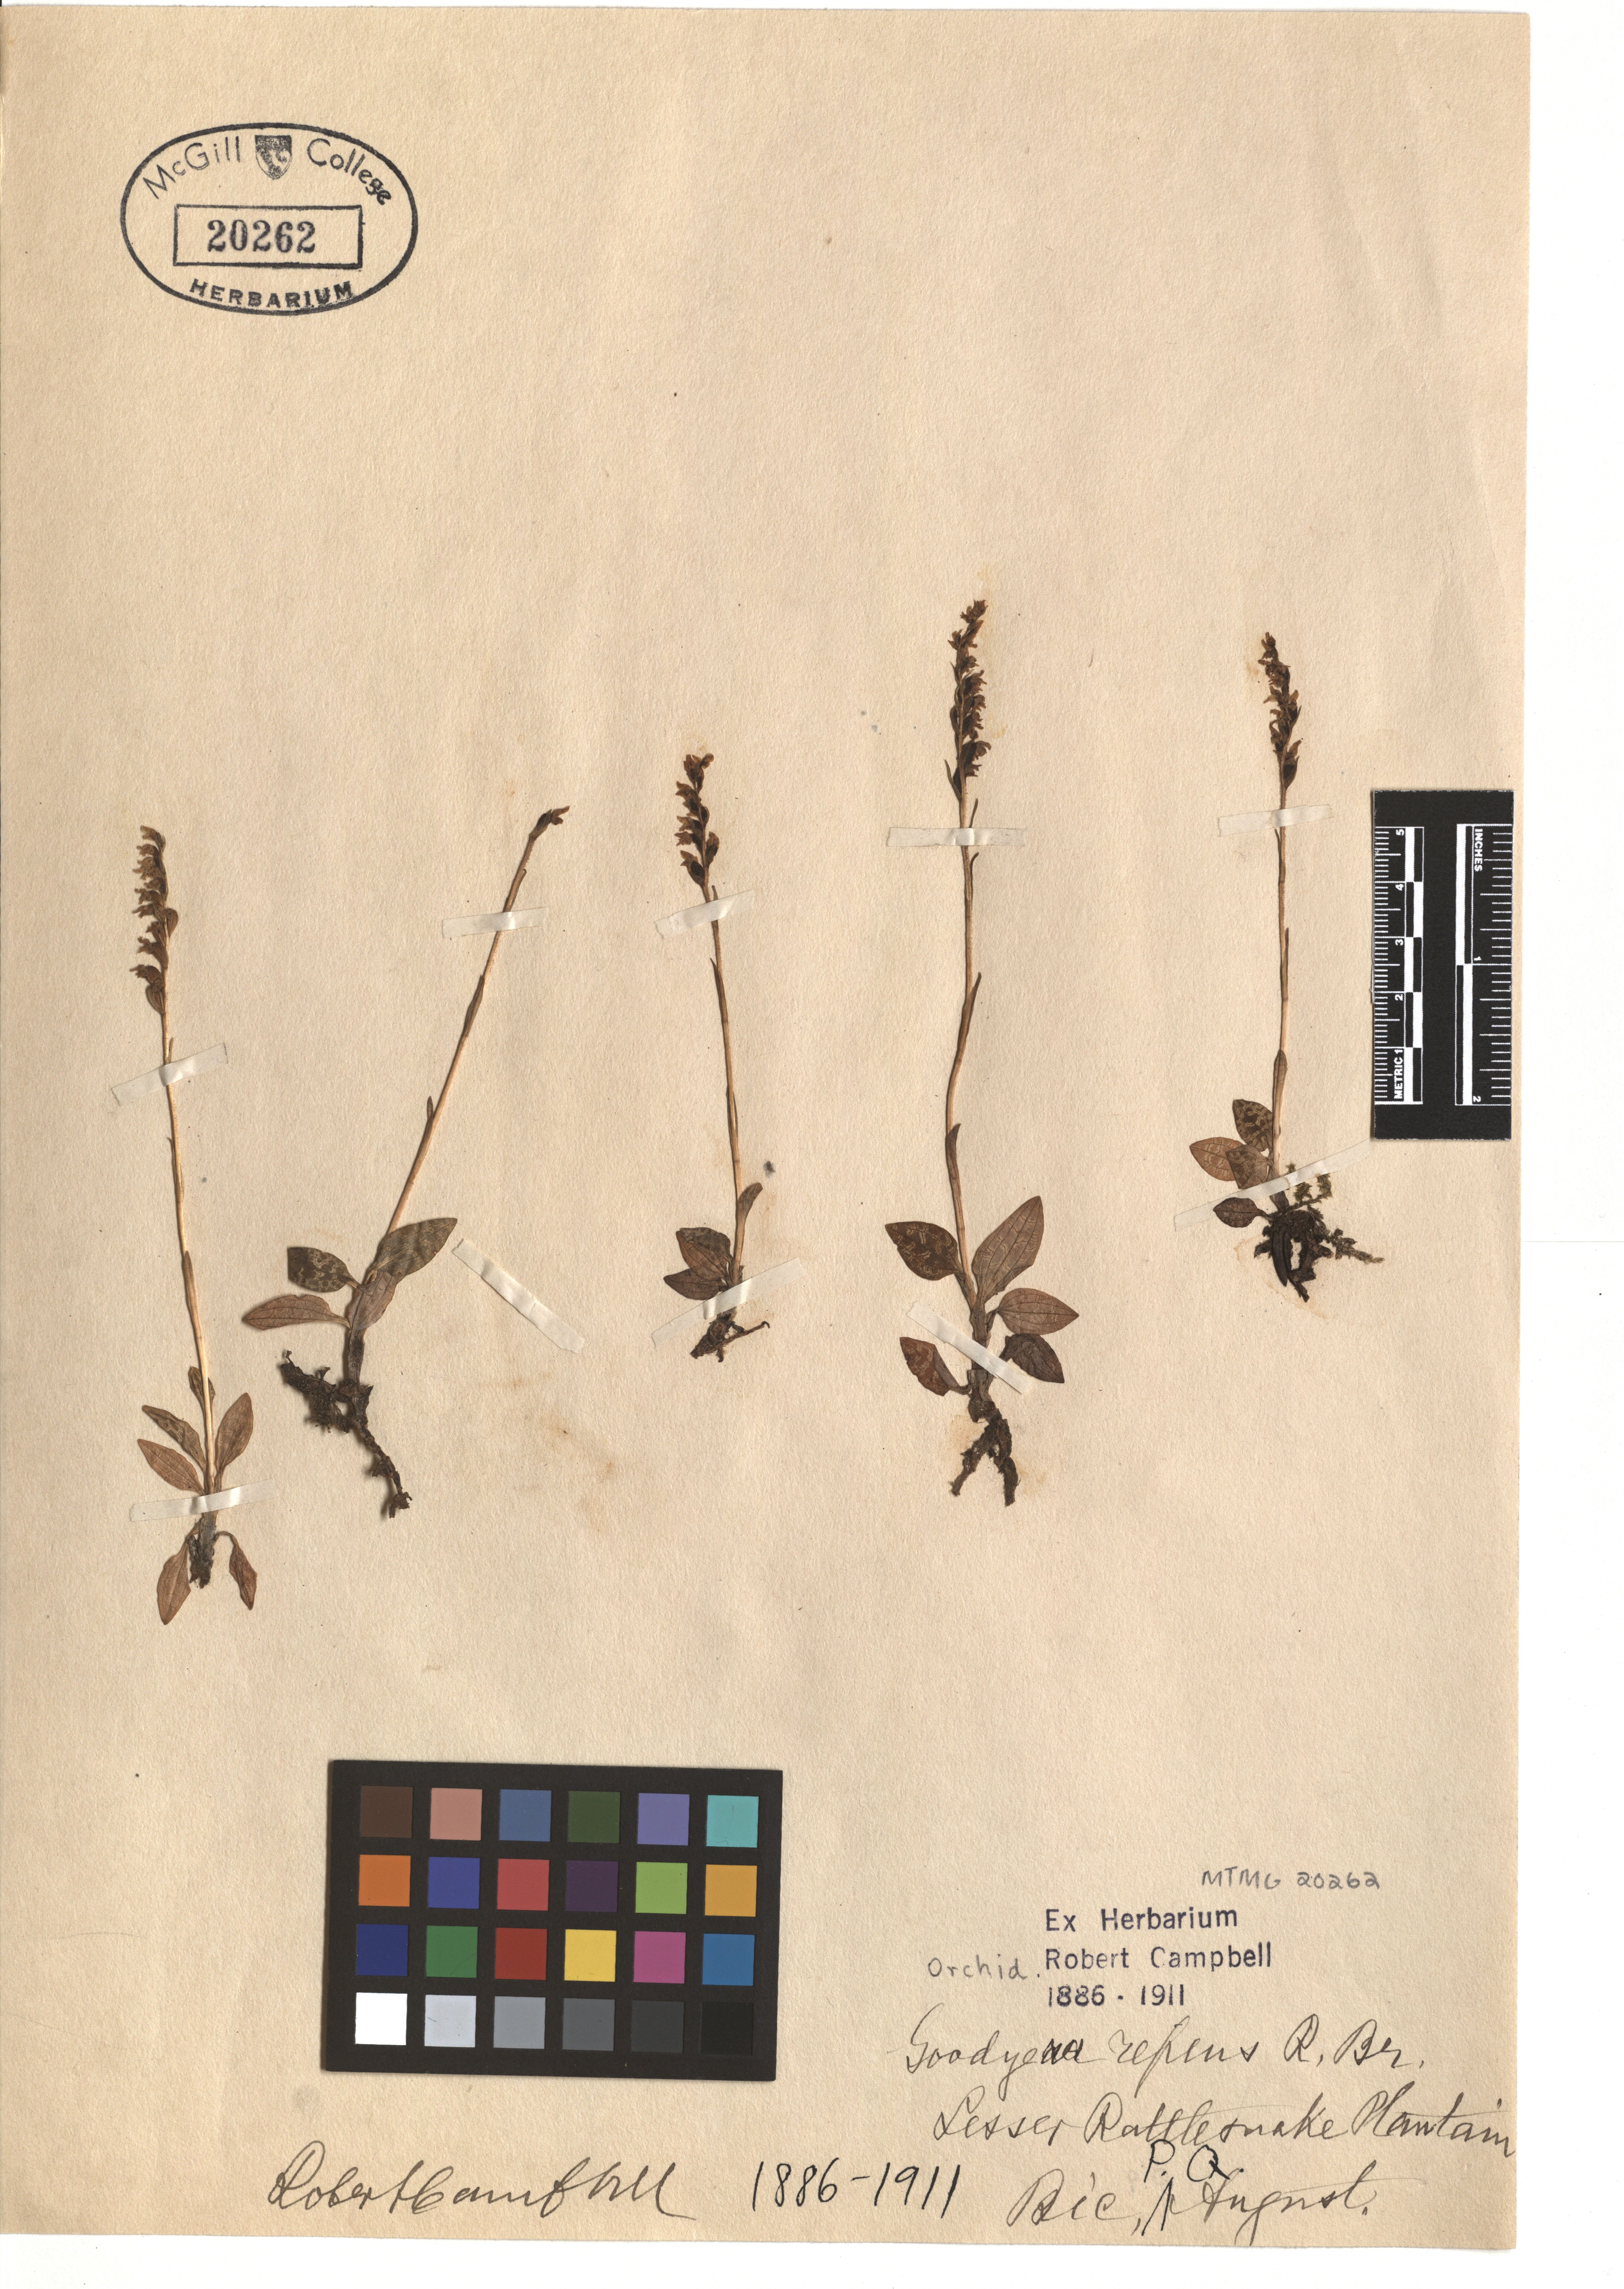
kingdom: Plantae
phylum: Tracheophyta
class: Liliopsida
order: Asparagales
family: Orchidaceae
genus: Goodyera
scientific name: Goodyera repens
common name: Creeping lady's-tresses
